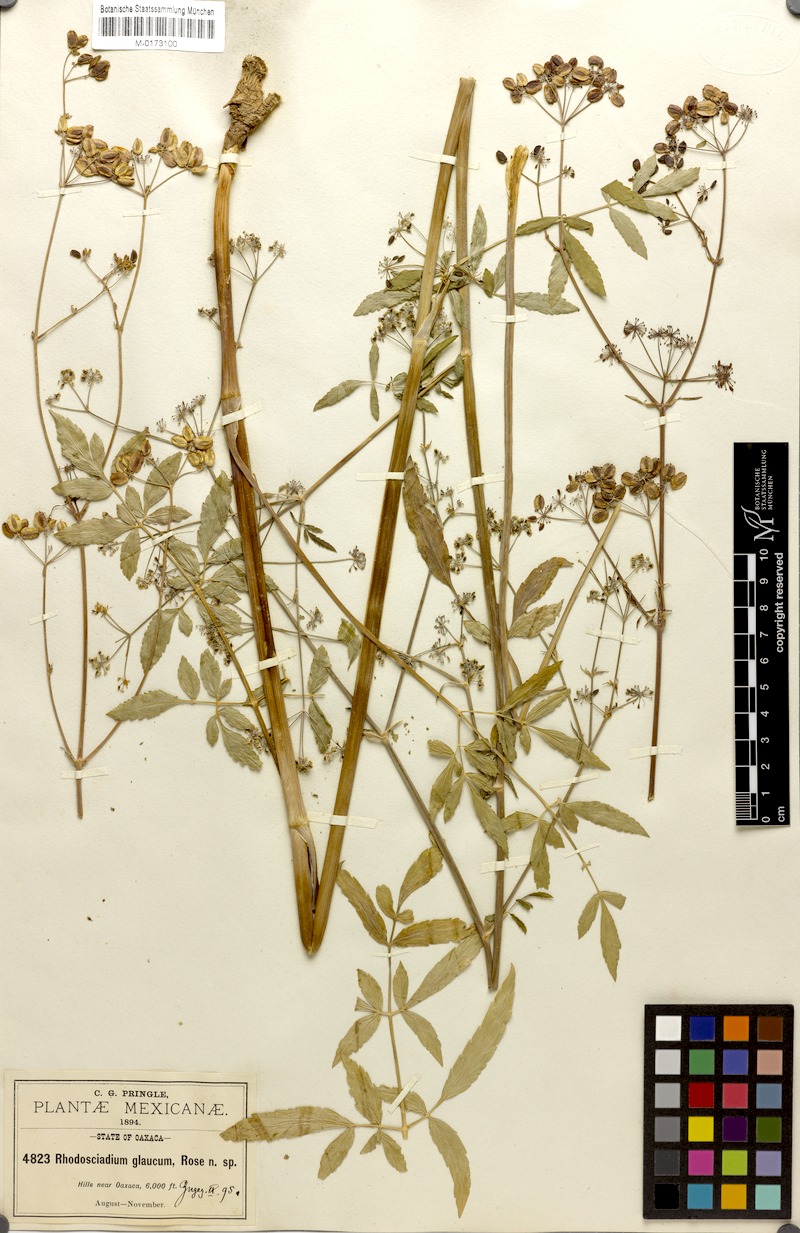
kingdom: Plantae
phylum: Tracheophyta
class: Magnoliopsida
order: Apiales
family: Apiaceae
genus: Rhodosciadium
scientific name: Rhodosciadium glaucum
